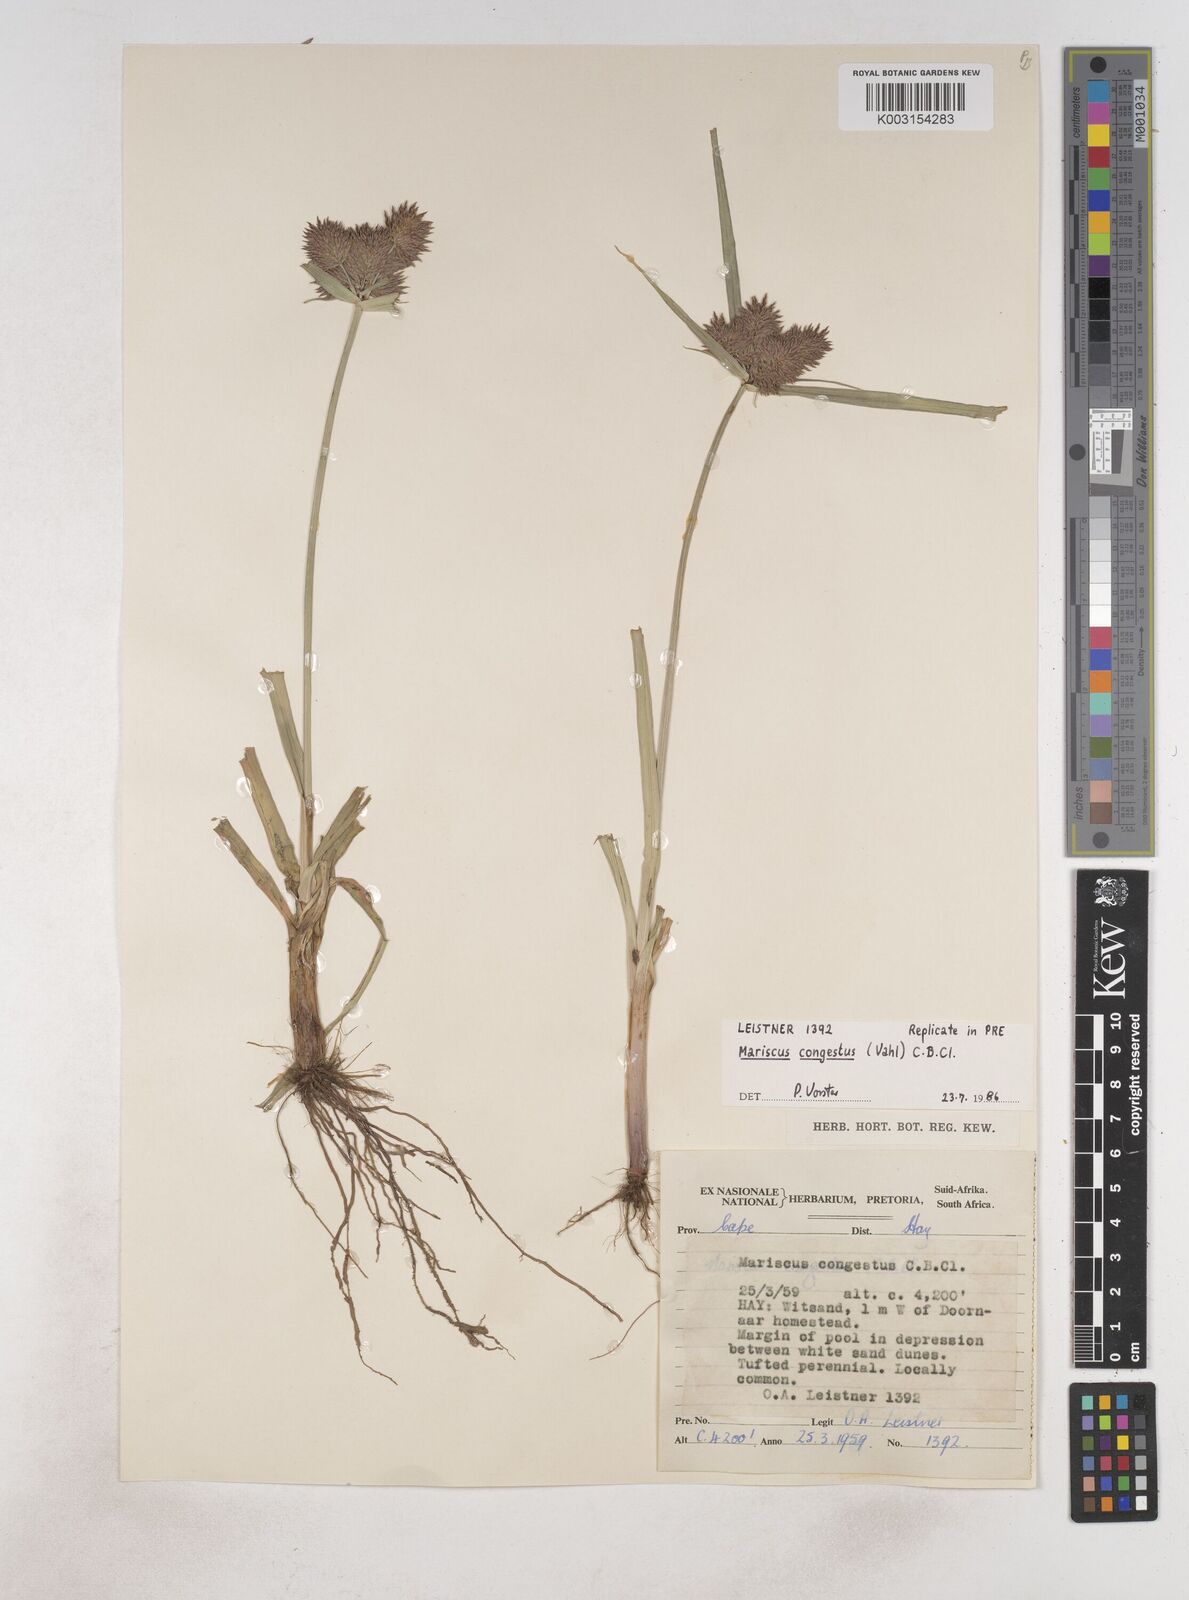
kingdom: Plantae
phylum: Tracheophyta
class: Liliopsida
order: Poales
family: Cyperaceae
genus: Cyperus
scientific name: Cyperus congestus
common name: Dense flat sedge
